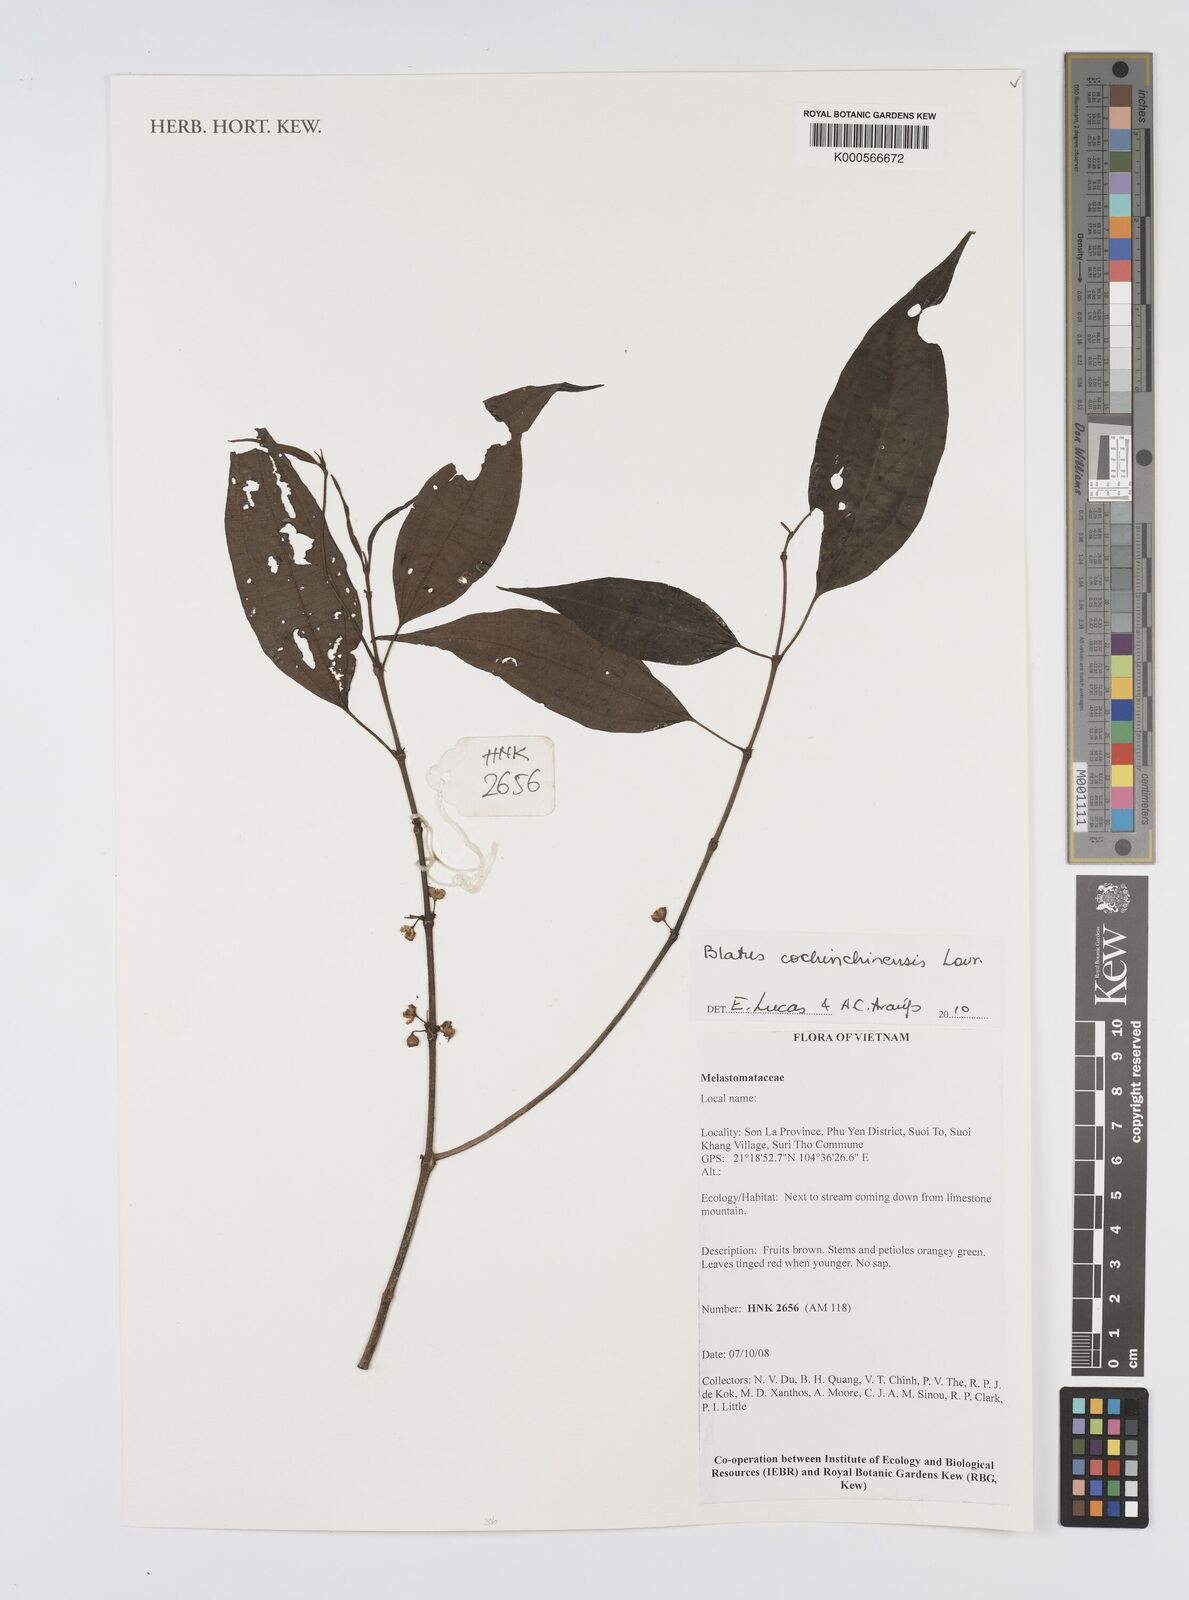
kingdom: Plantae
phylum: Tracheophyta
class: Magnoliopsida
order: Myrtales
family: Melastomataceae
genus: Blastus
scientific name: Blastus cochinchinensis
